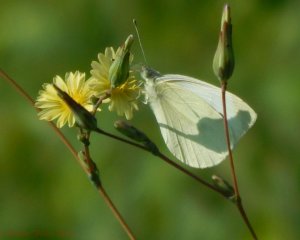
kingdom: Animalia
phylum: Arthropoda
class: Insecta
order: Lepidoptera
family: Pieridae
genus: Pieris
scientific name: Pieris rapae
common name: Cabbage White
